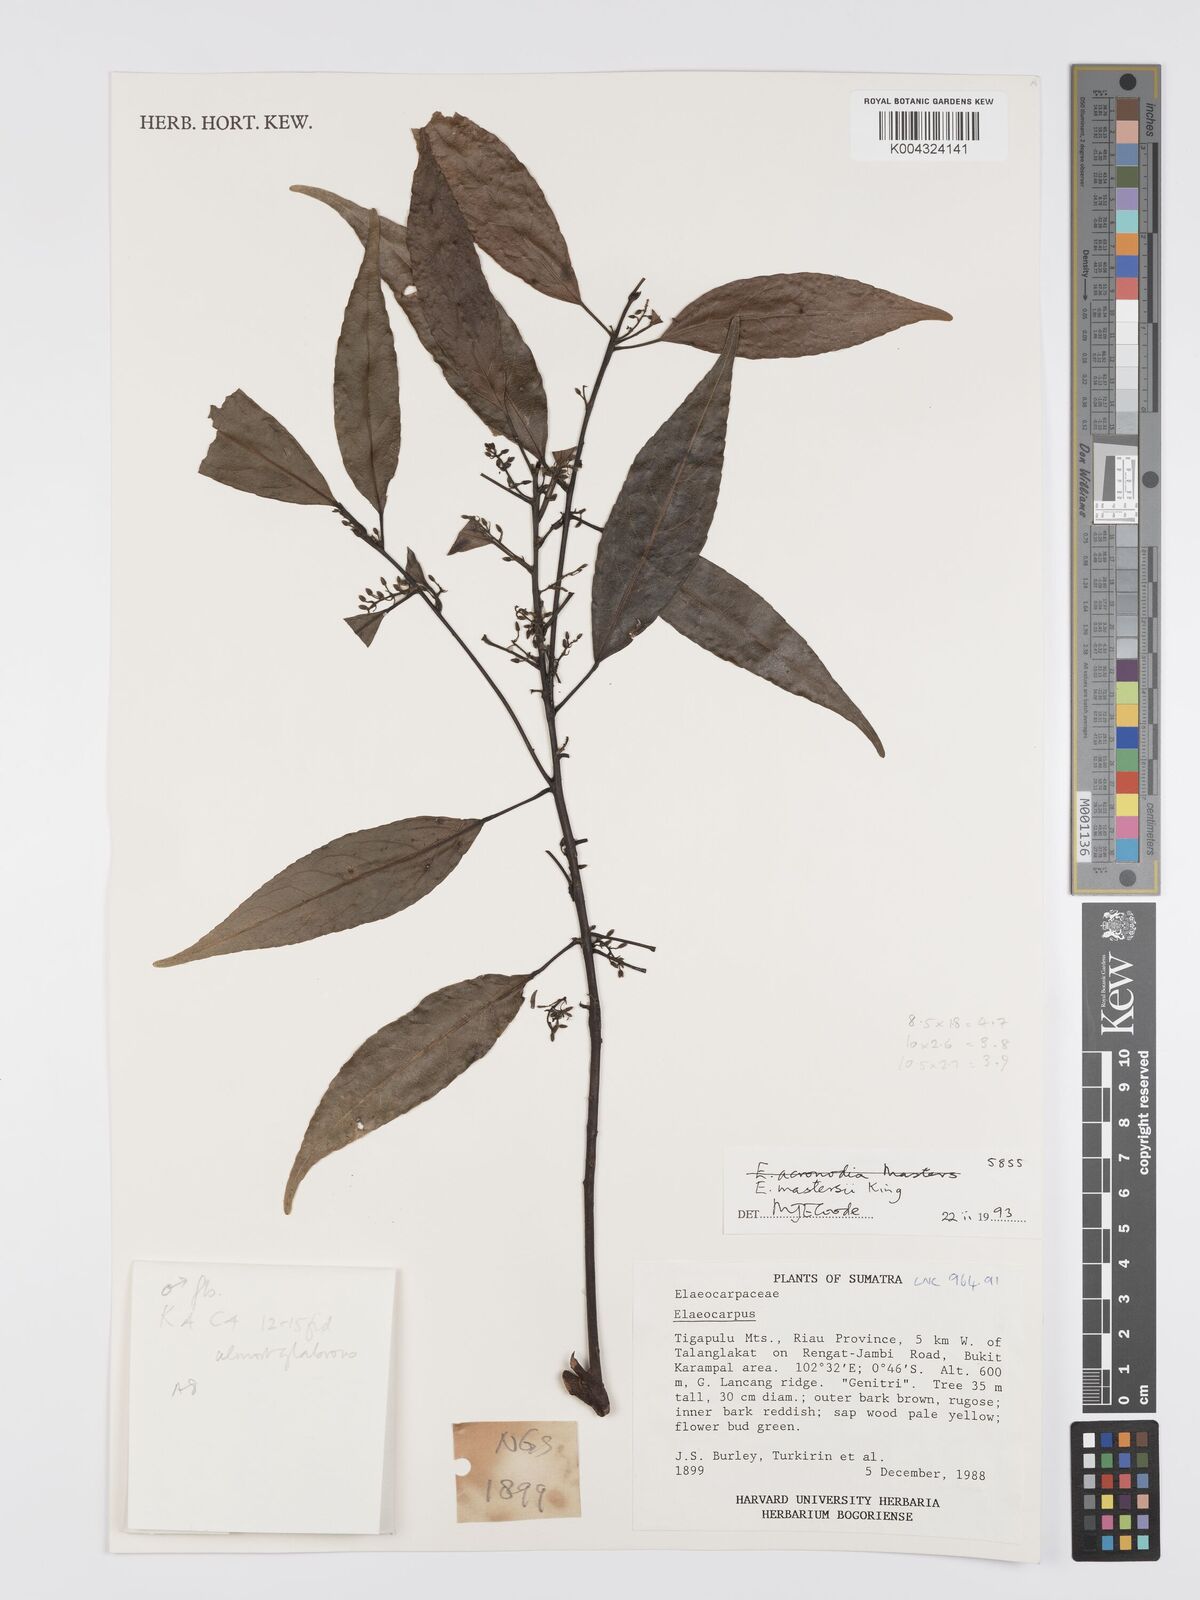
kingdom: Plantae
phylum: Tracheophyta
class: Magnoliopsida
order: Oxalidales
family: Elaeocarpaceae
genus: Elaeocarpus
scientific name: Elaeocarpus mastersii
